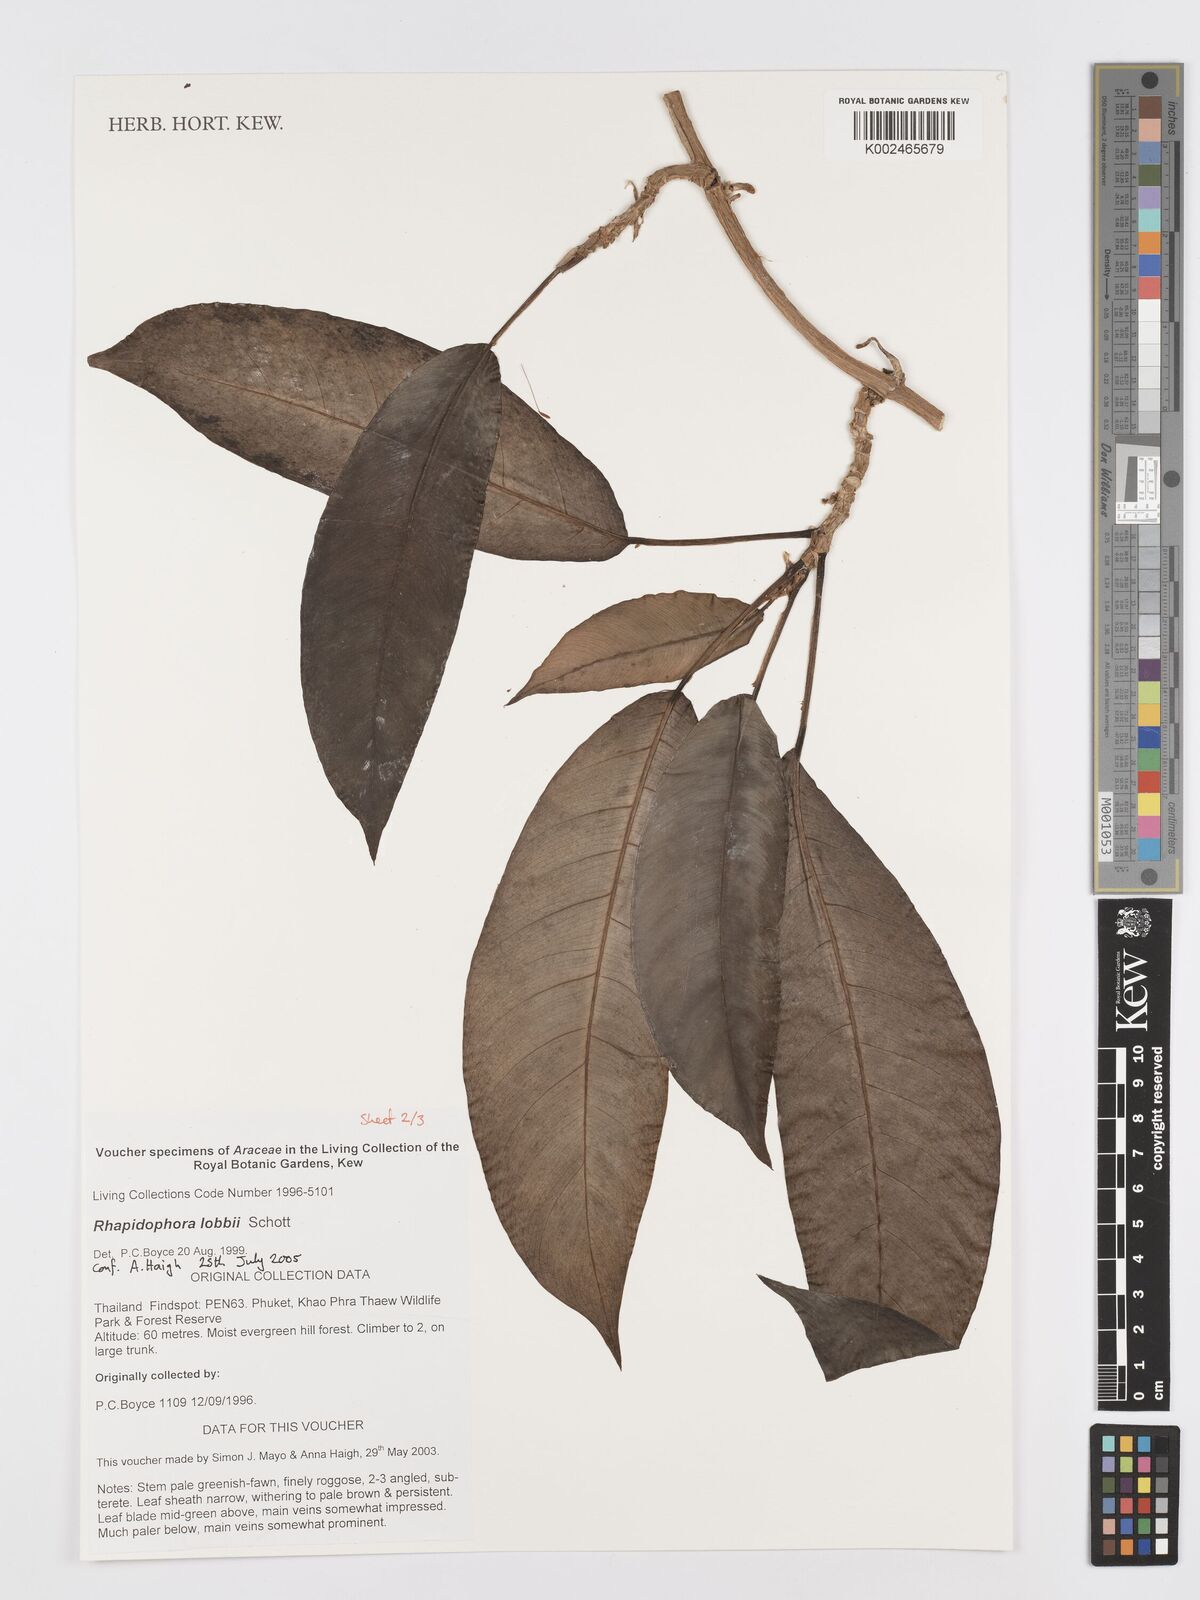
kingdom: Plantae
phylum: Tracheophyta
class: Liliopsida
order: Alismatales
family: Araceae
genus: Rhaphidophora
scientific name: Rhaphidophora lobbii
